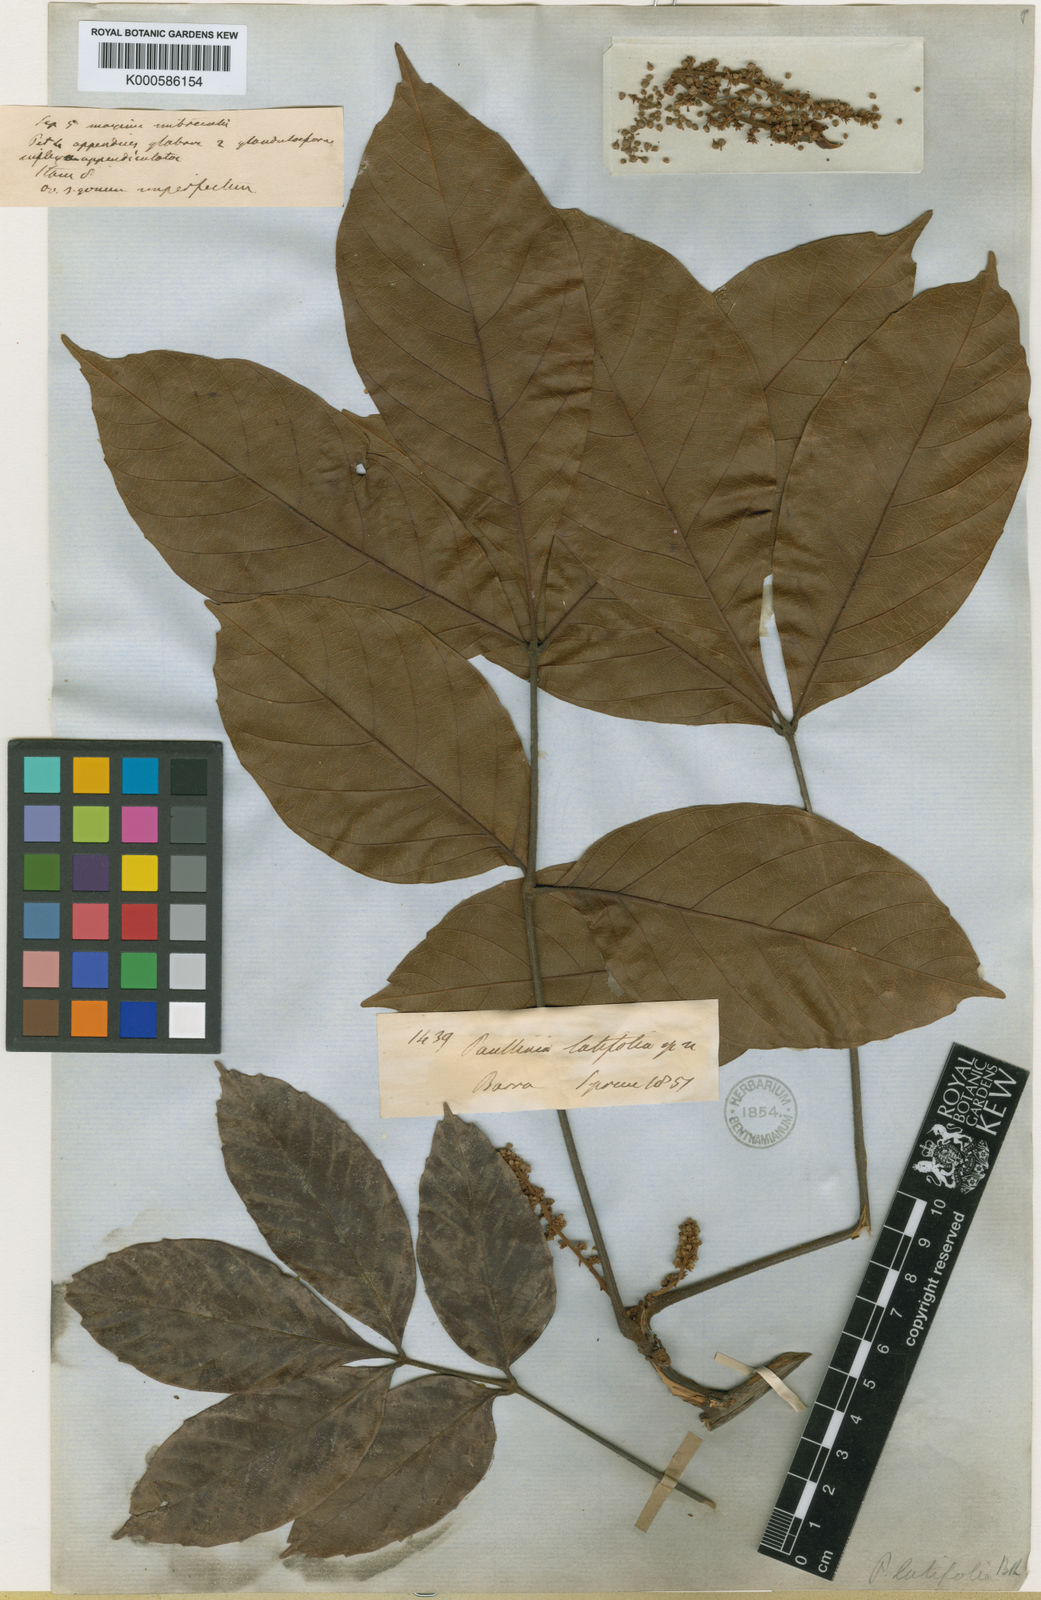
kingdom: Plantae
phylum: Tracheophyta
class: Magnoliopsida
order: Sapindales
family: Sapindaceae
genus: Paullinia
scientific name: Paullinia latifolia
